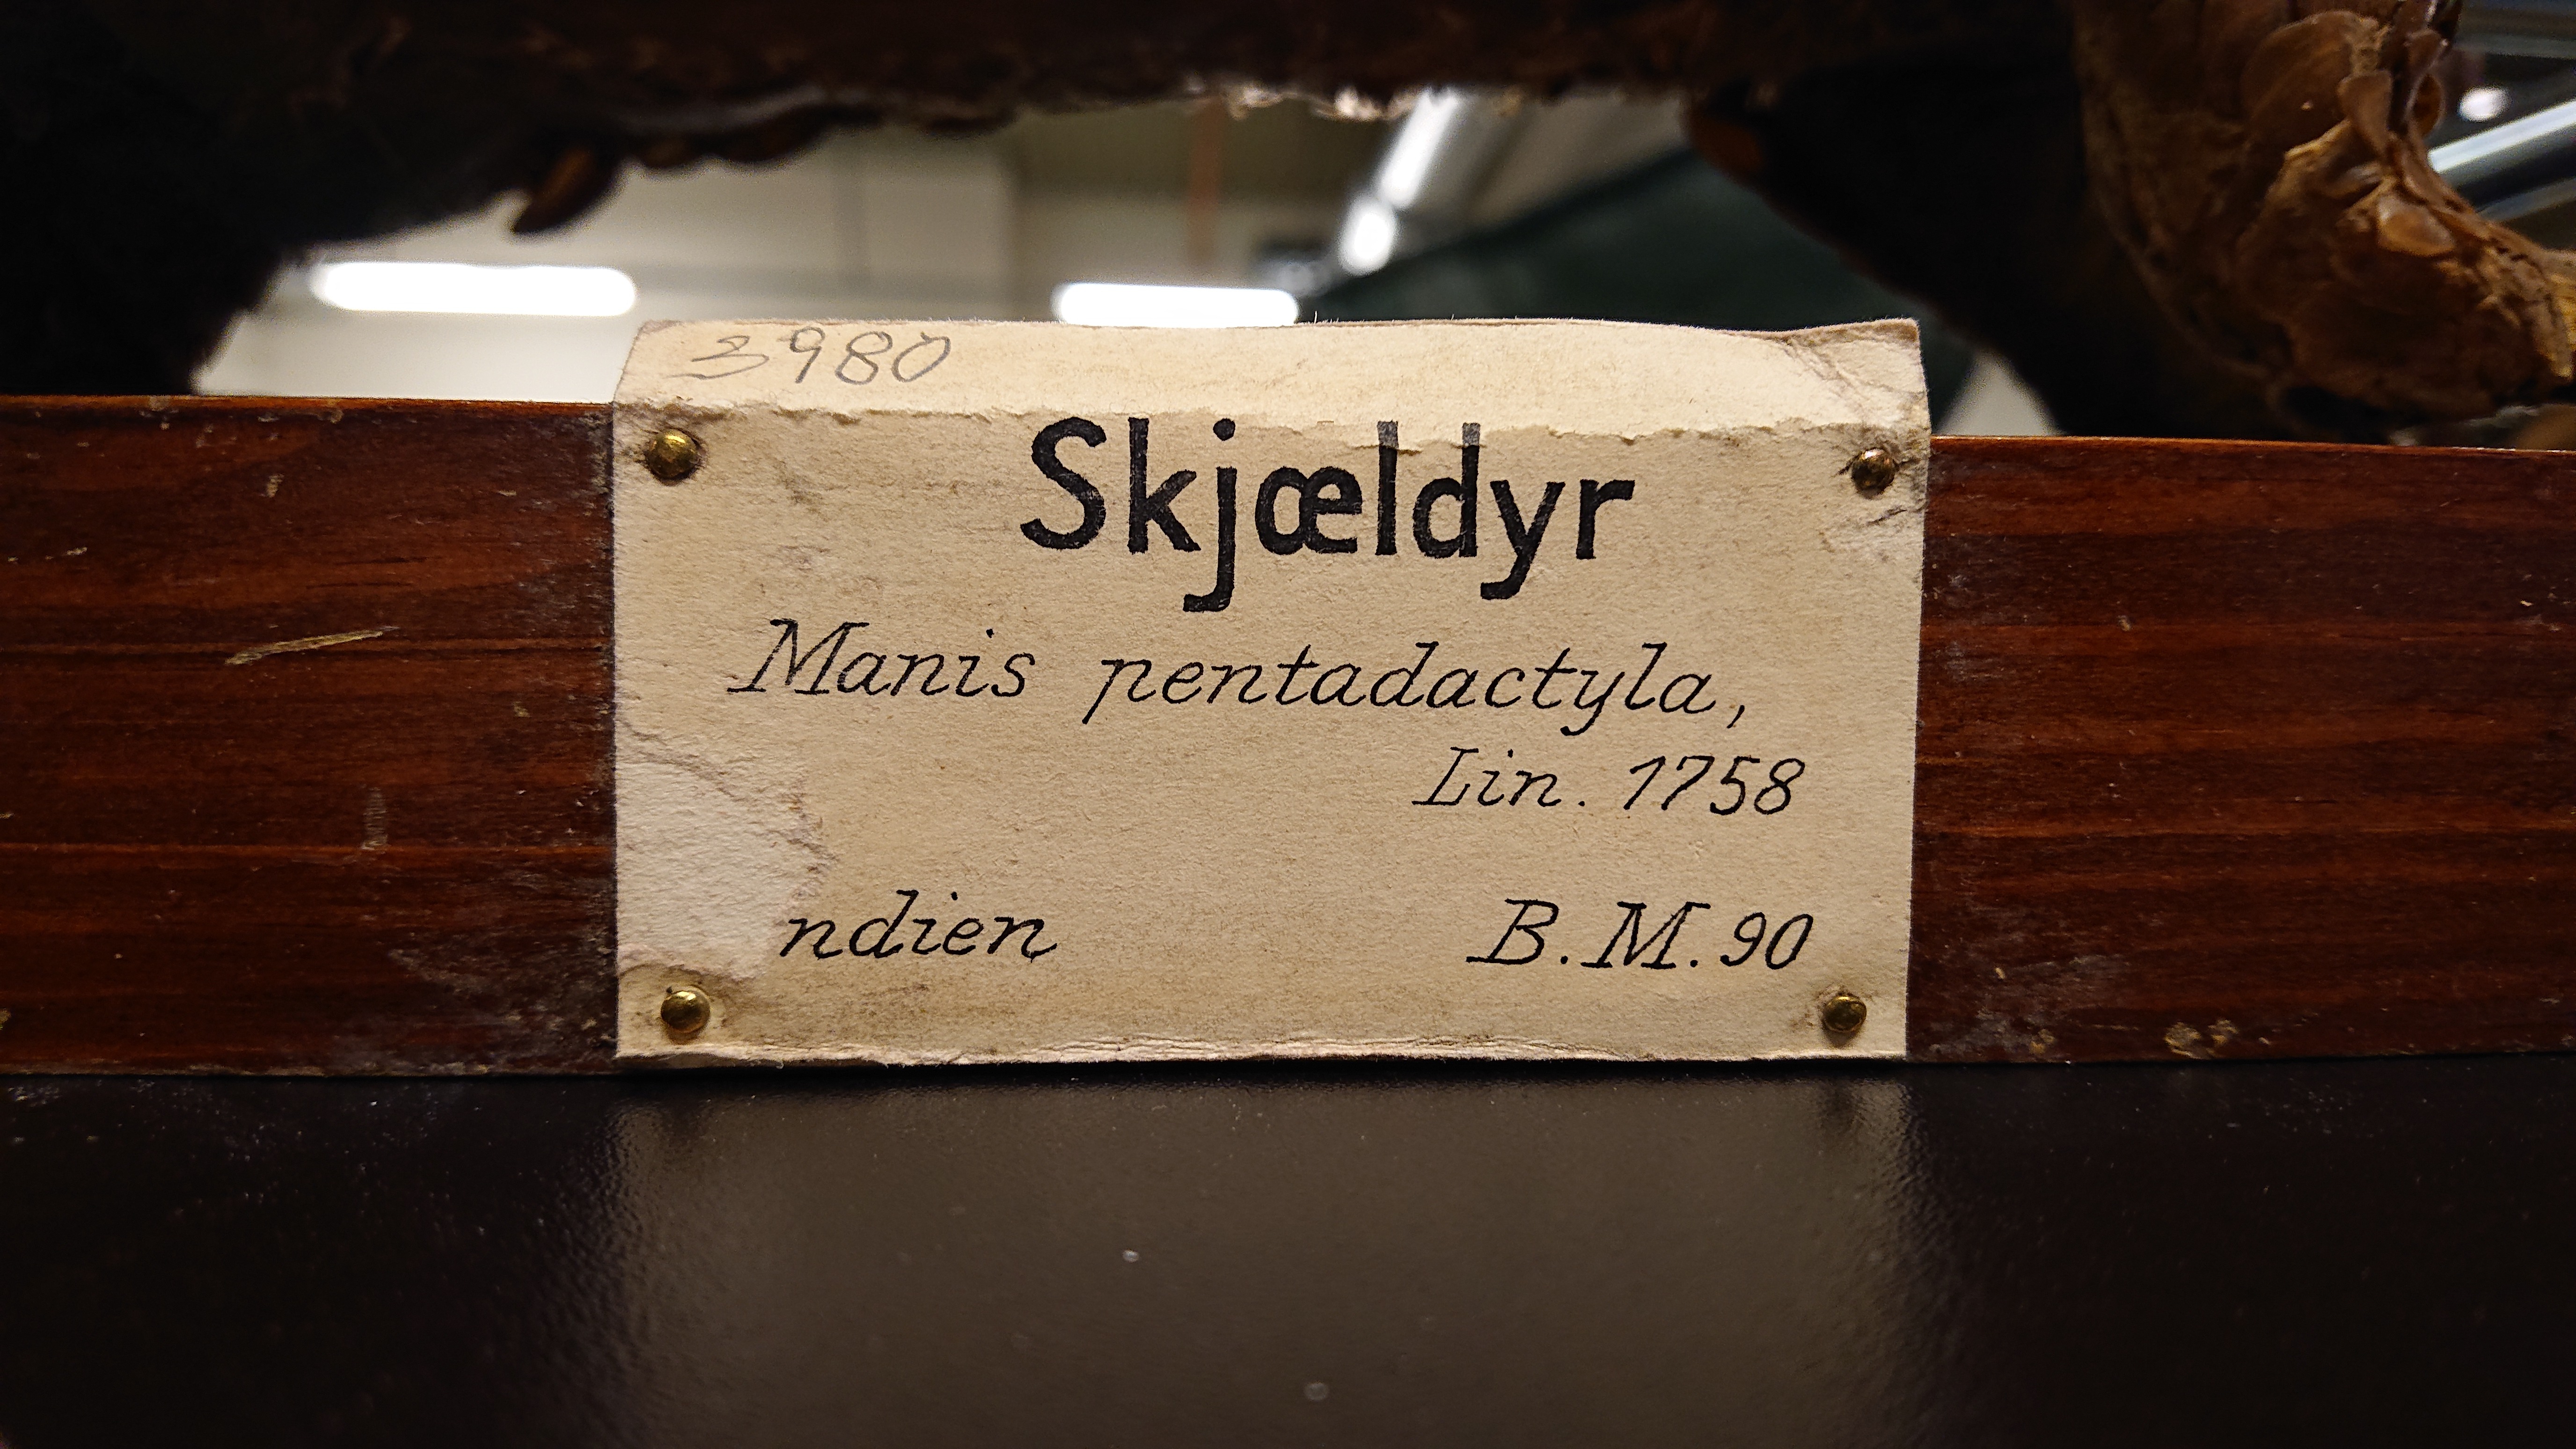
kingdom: Animalia
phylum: Chordata
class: Mammalia
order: Pholidota
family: Manidae
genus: Manis
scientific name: Manis pentadactyla
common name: Chinese pangolin
